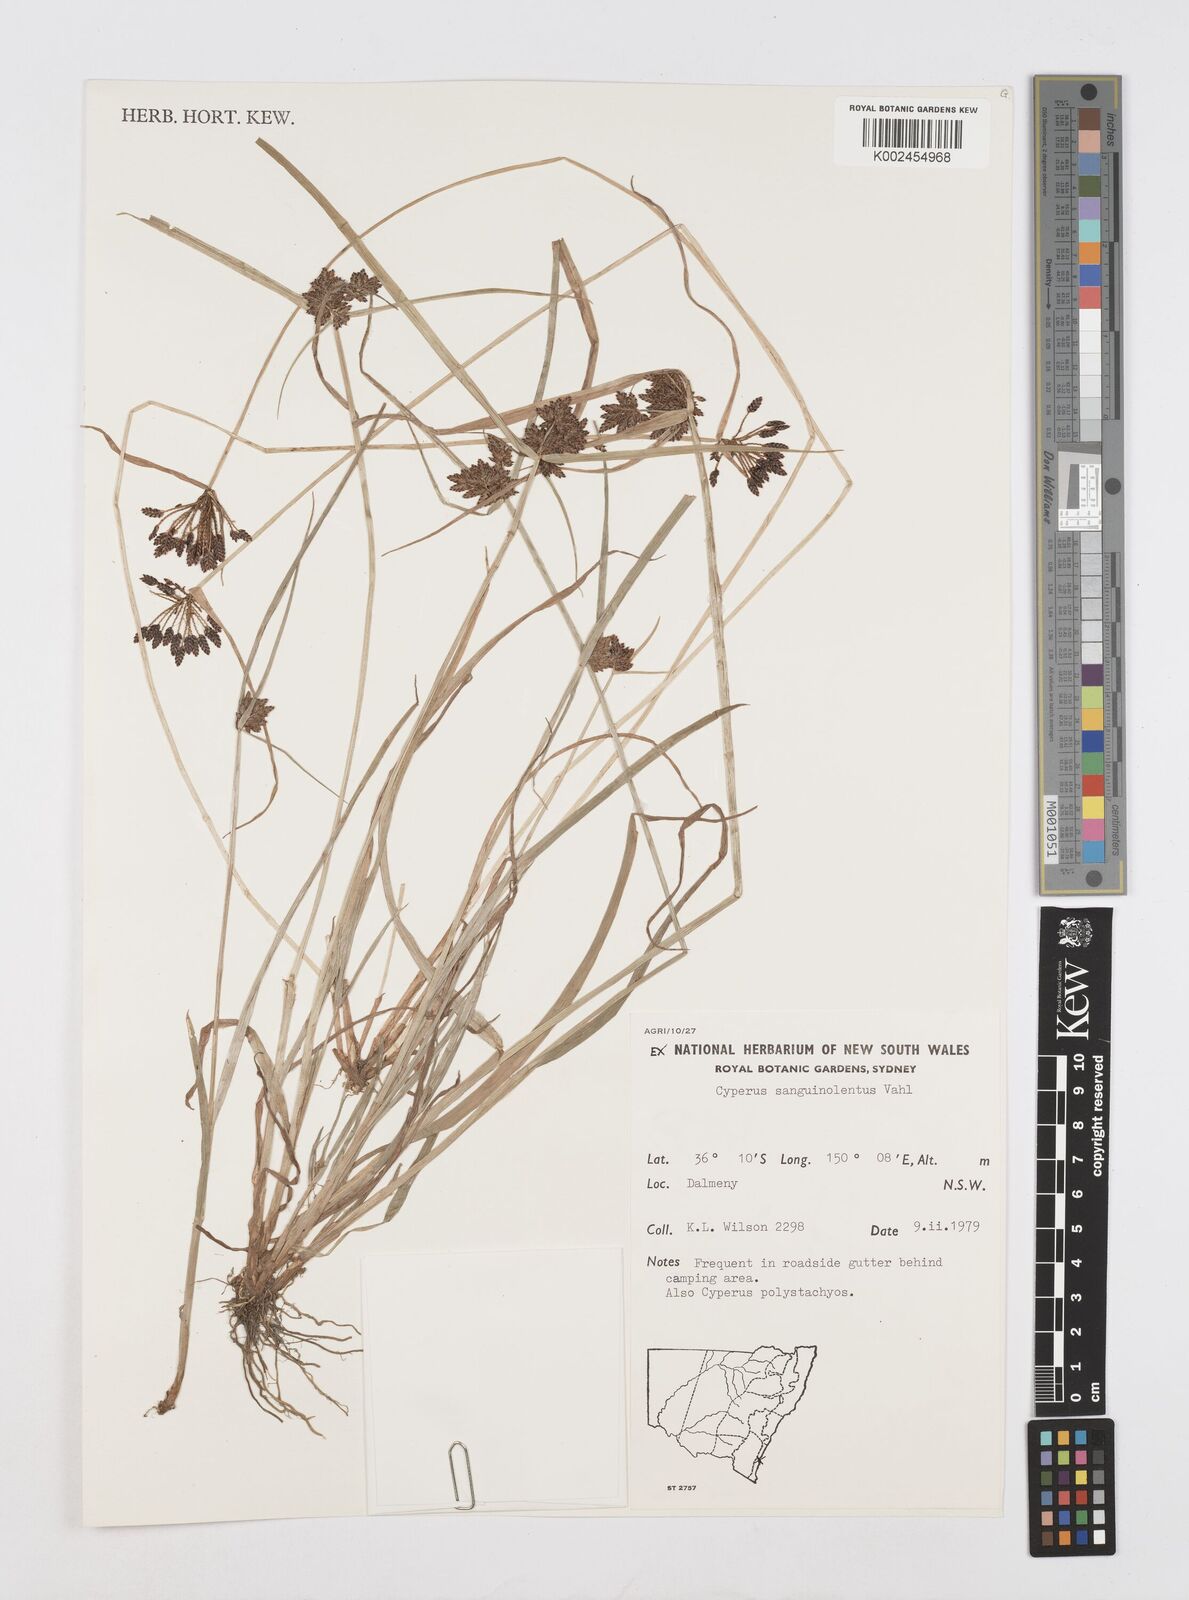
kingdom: Plantae
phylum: Tracheophyta
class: Liliopsida
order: Poales
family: Cyperaceae
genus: Cyperus
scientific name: Cyperus sanguinolentus
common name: Purpleglume flatsedge
